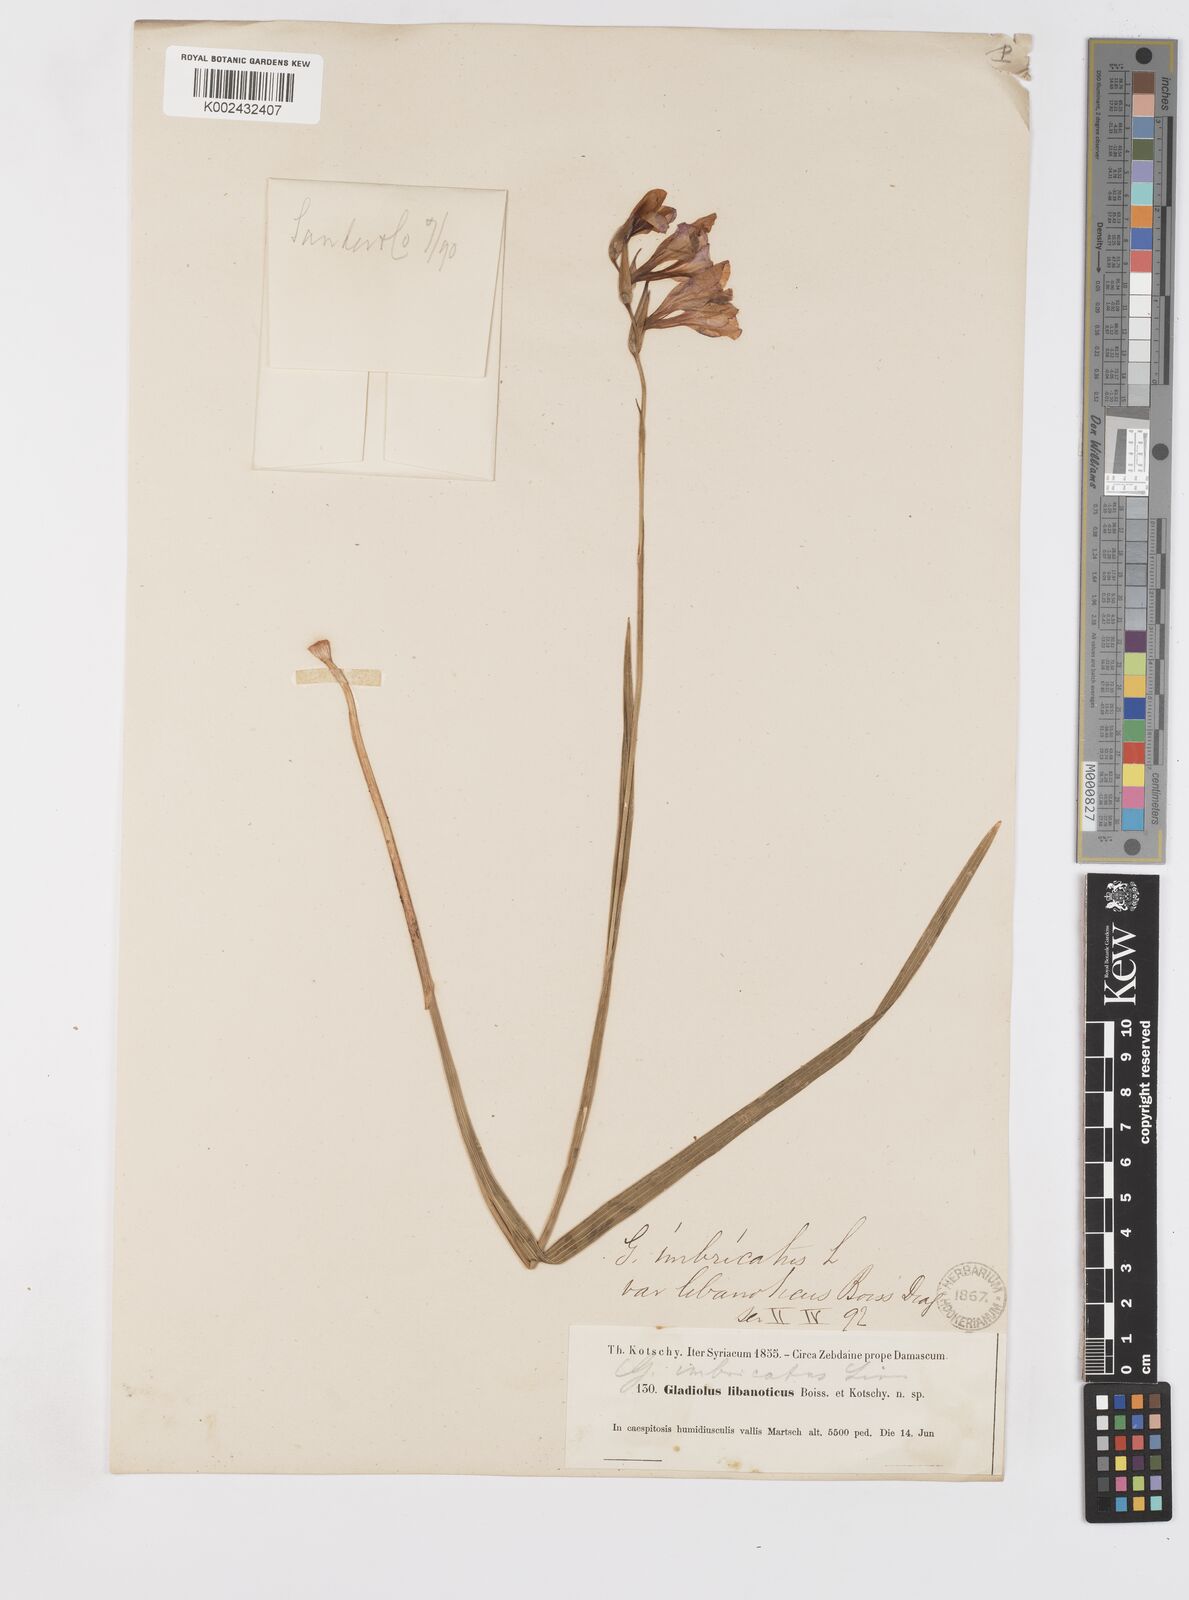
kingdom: Plantae
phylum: Tracheophyta
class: Liliopsida
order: Asparagales
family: Iridaceae
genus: Gladiolus
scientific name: Gladiolus kotschyanus
